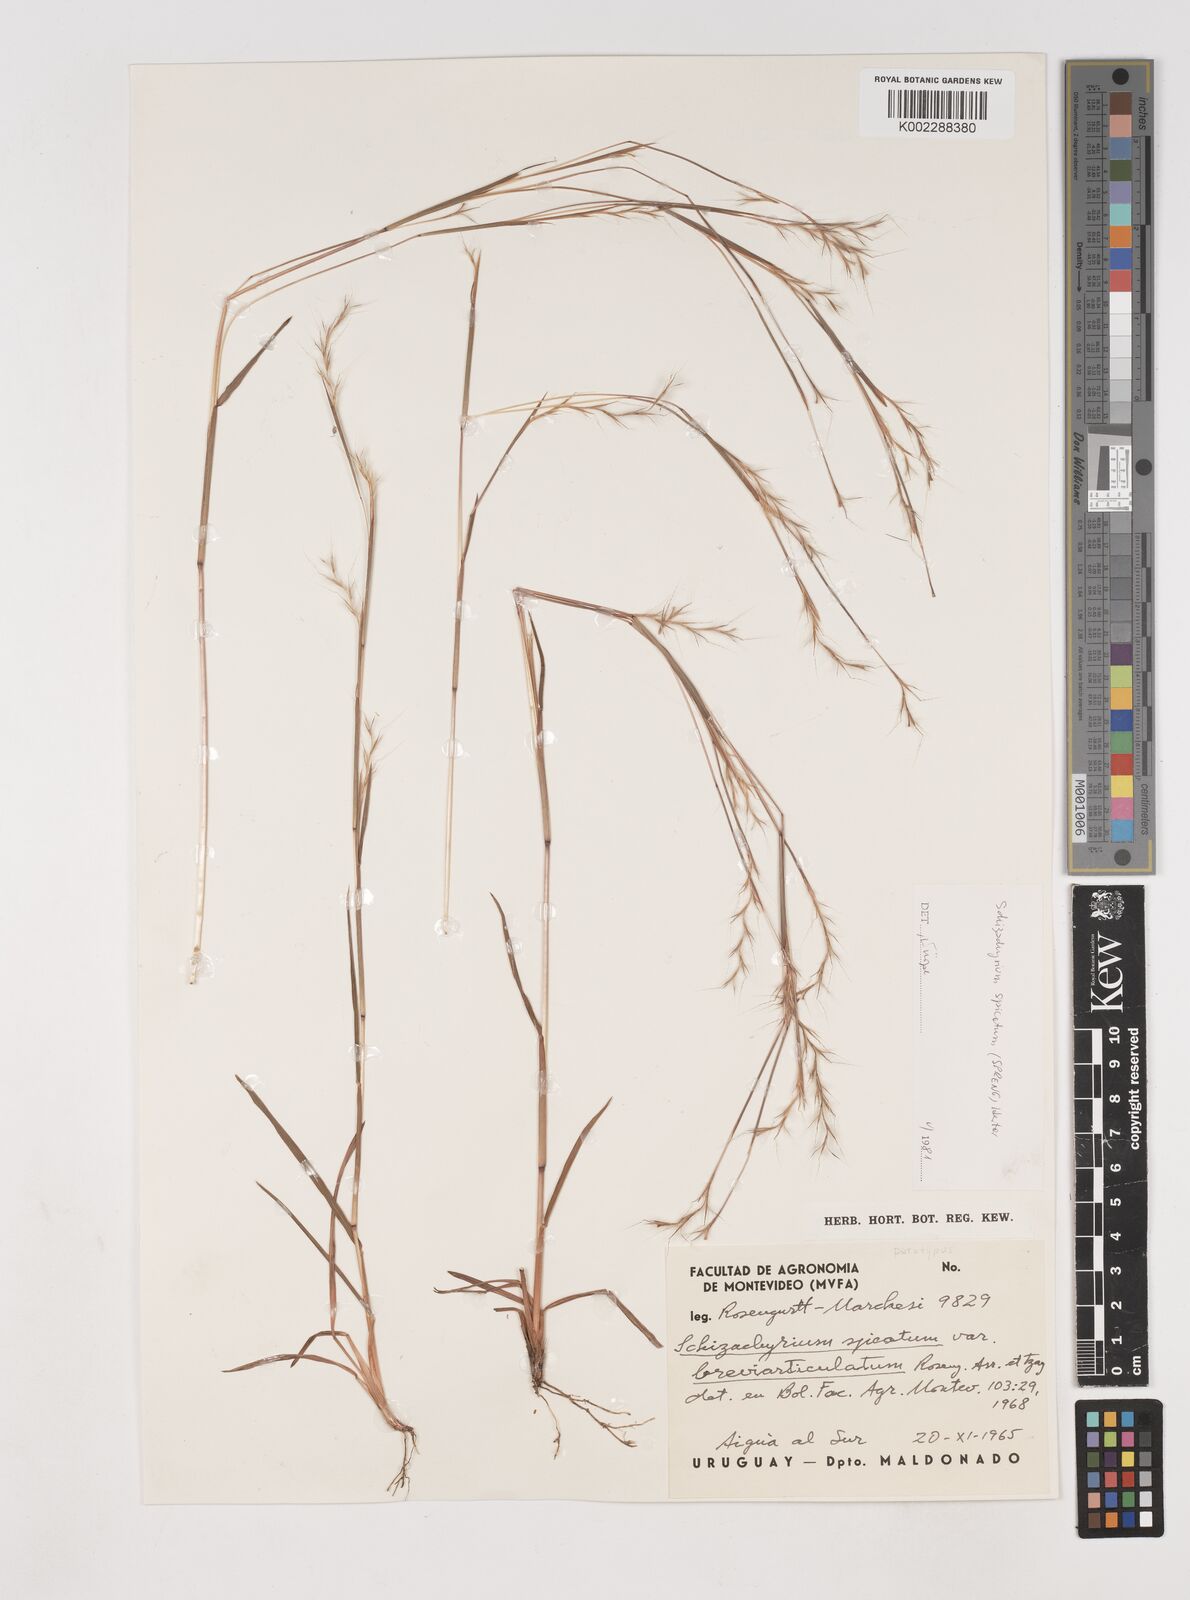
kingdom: Plantae
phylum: Tracheophyta
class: Liliopsida
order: Poales
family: Poaceae
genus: Schizachyrium
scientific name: Schizachyrium spicatum
